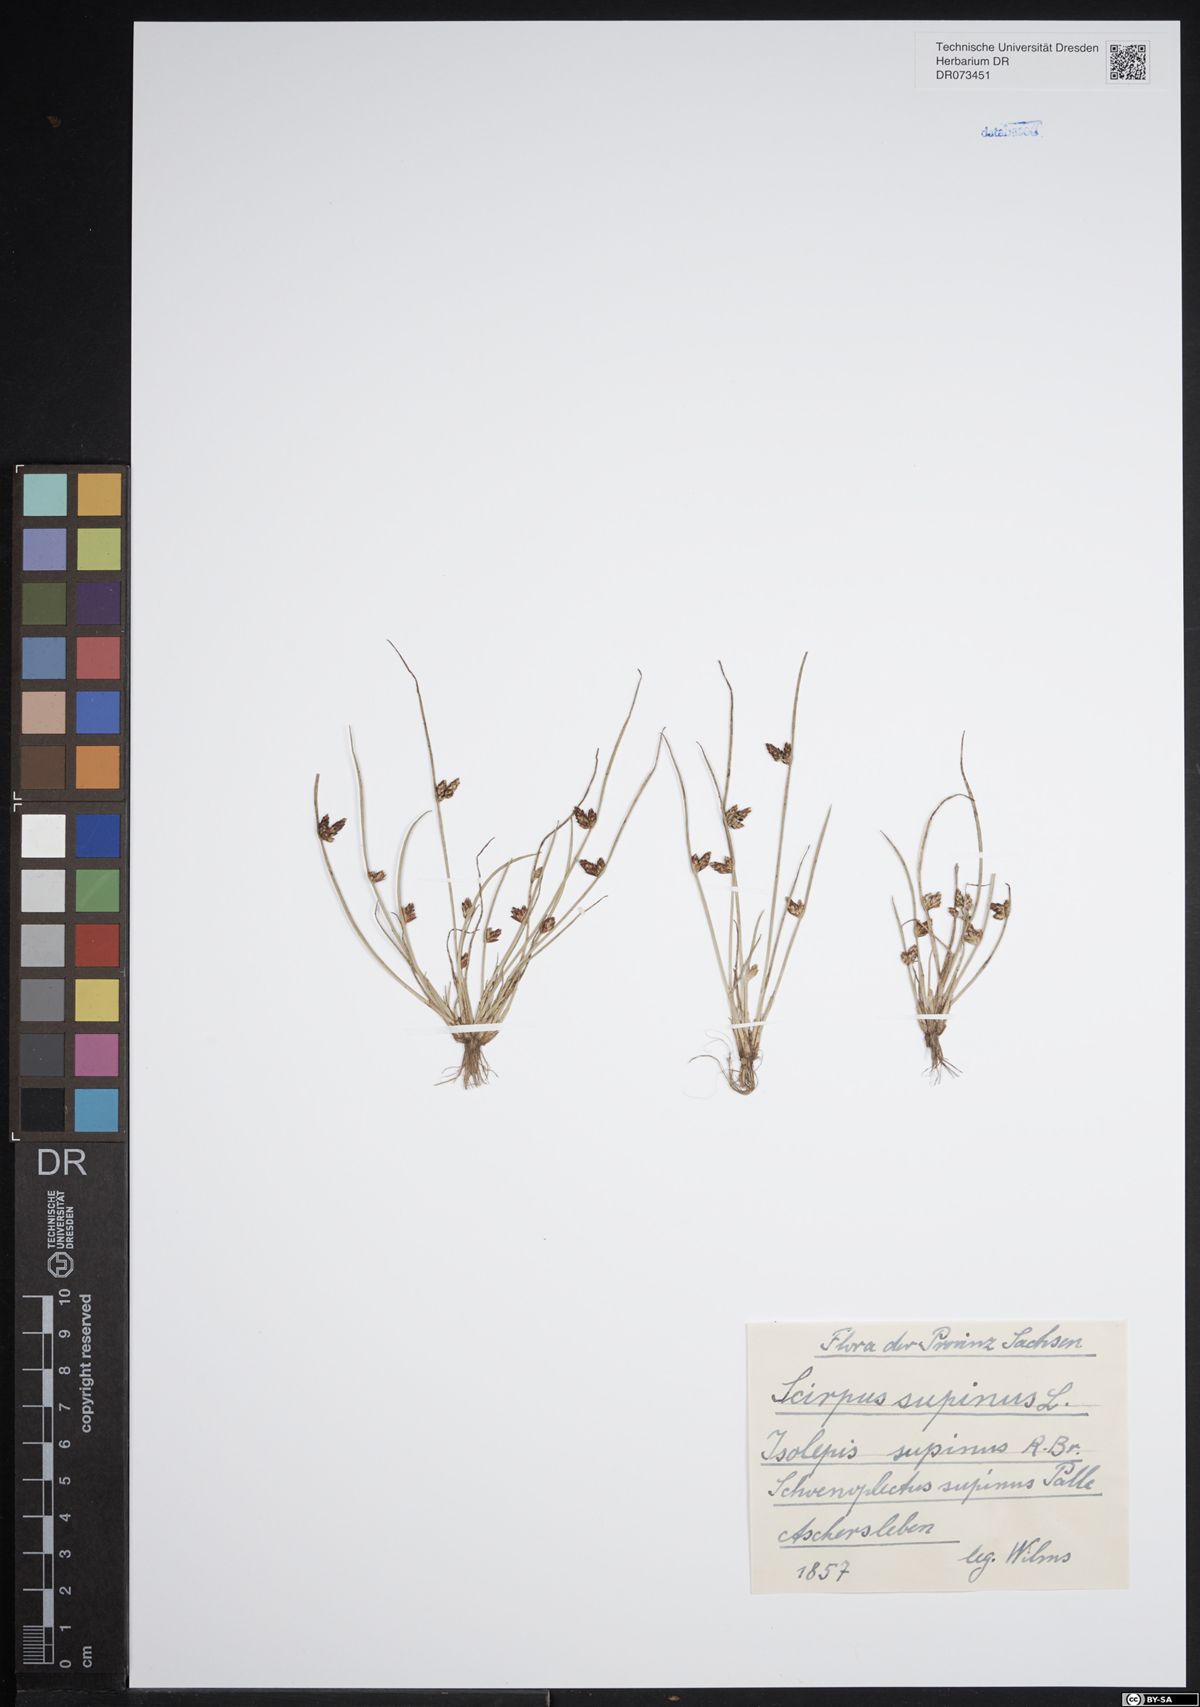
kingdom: Plantae
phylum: Tracheophyta
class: Liliopsida
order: Poales
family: Cyperaceae
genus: Schoenoplectiella
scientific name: Schoenoplectiella supina
